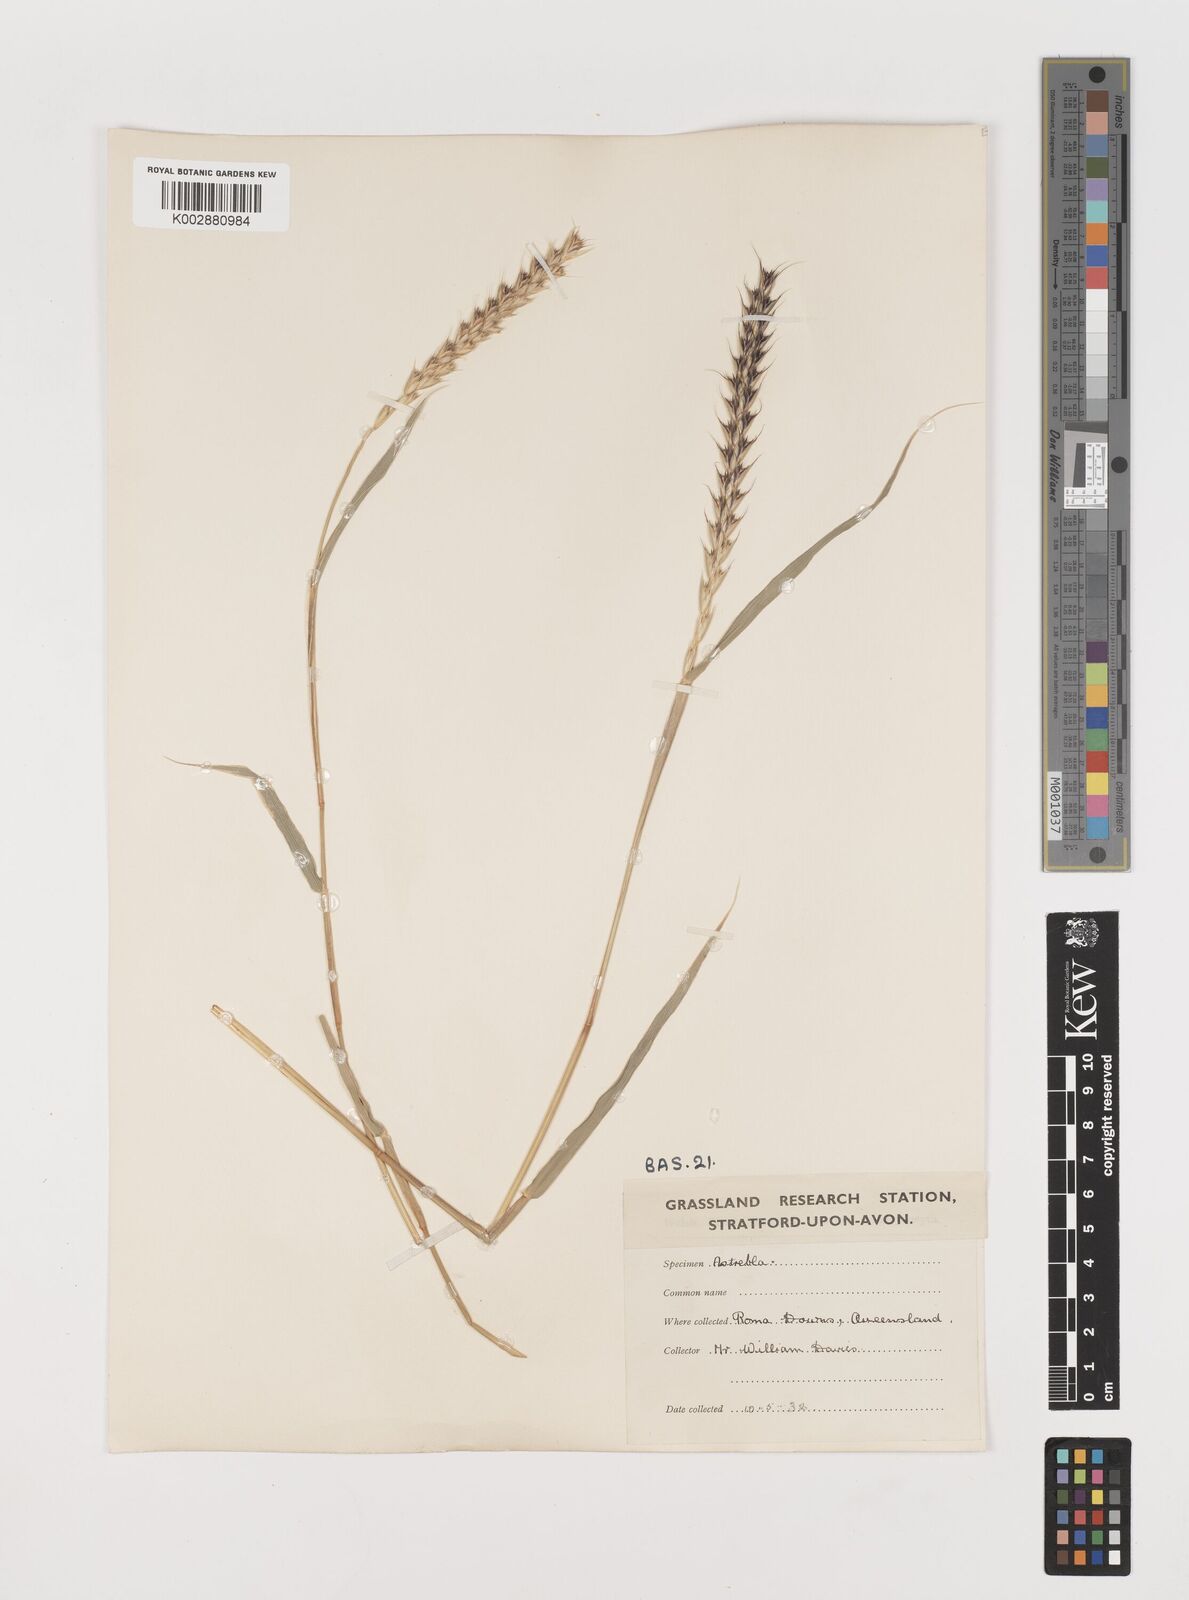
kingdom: Plantae
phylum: Tracheophyta
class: Liliopsida
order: Poales
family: Poaceae
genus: Astrebla
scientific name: Astrebla lappacea
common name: Curly mitchell grass
